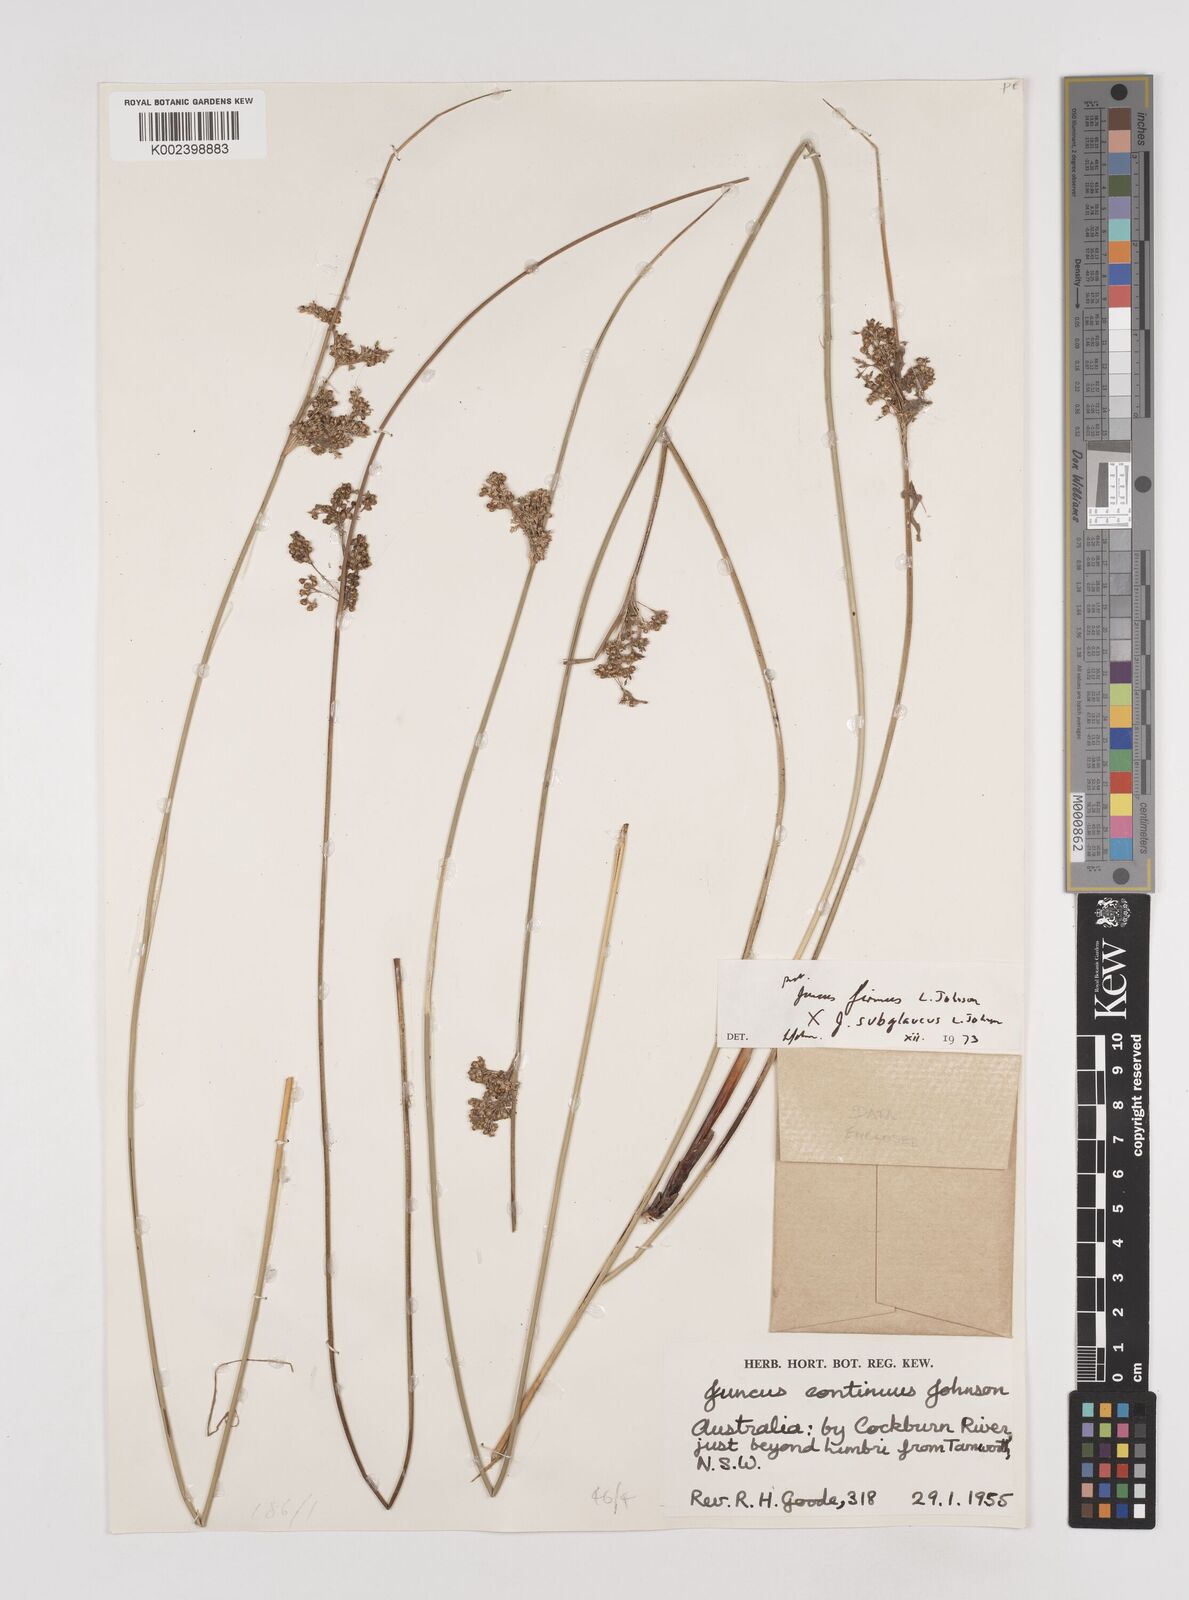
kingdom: Plantae
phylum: Tracheophyta
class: Liliopsida
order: Poales
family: Juncaceae
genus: Juncus
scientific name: Juncus firmus
